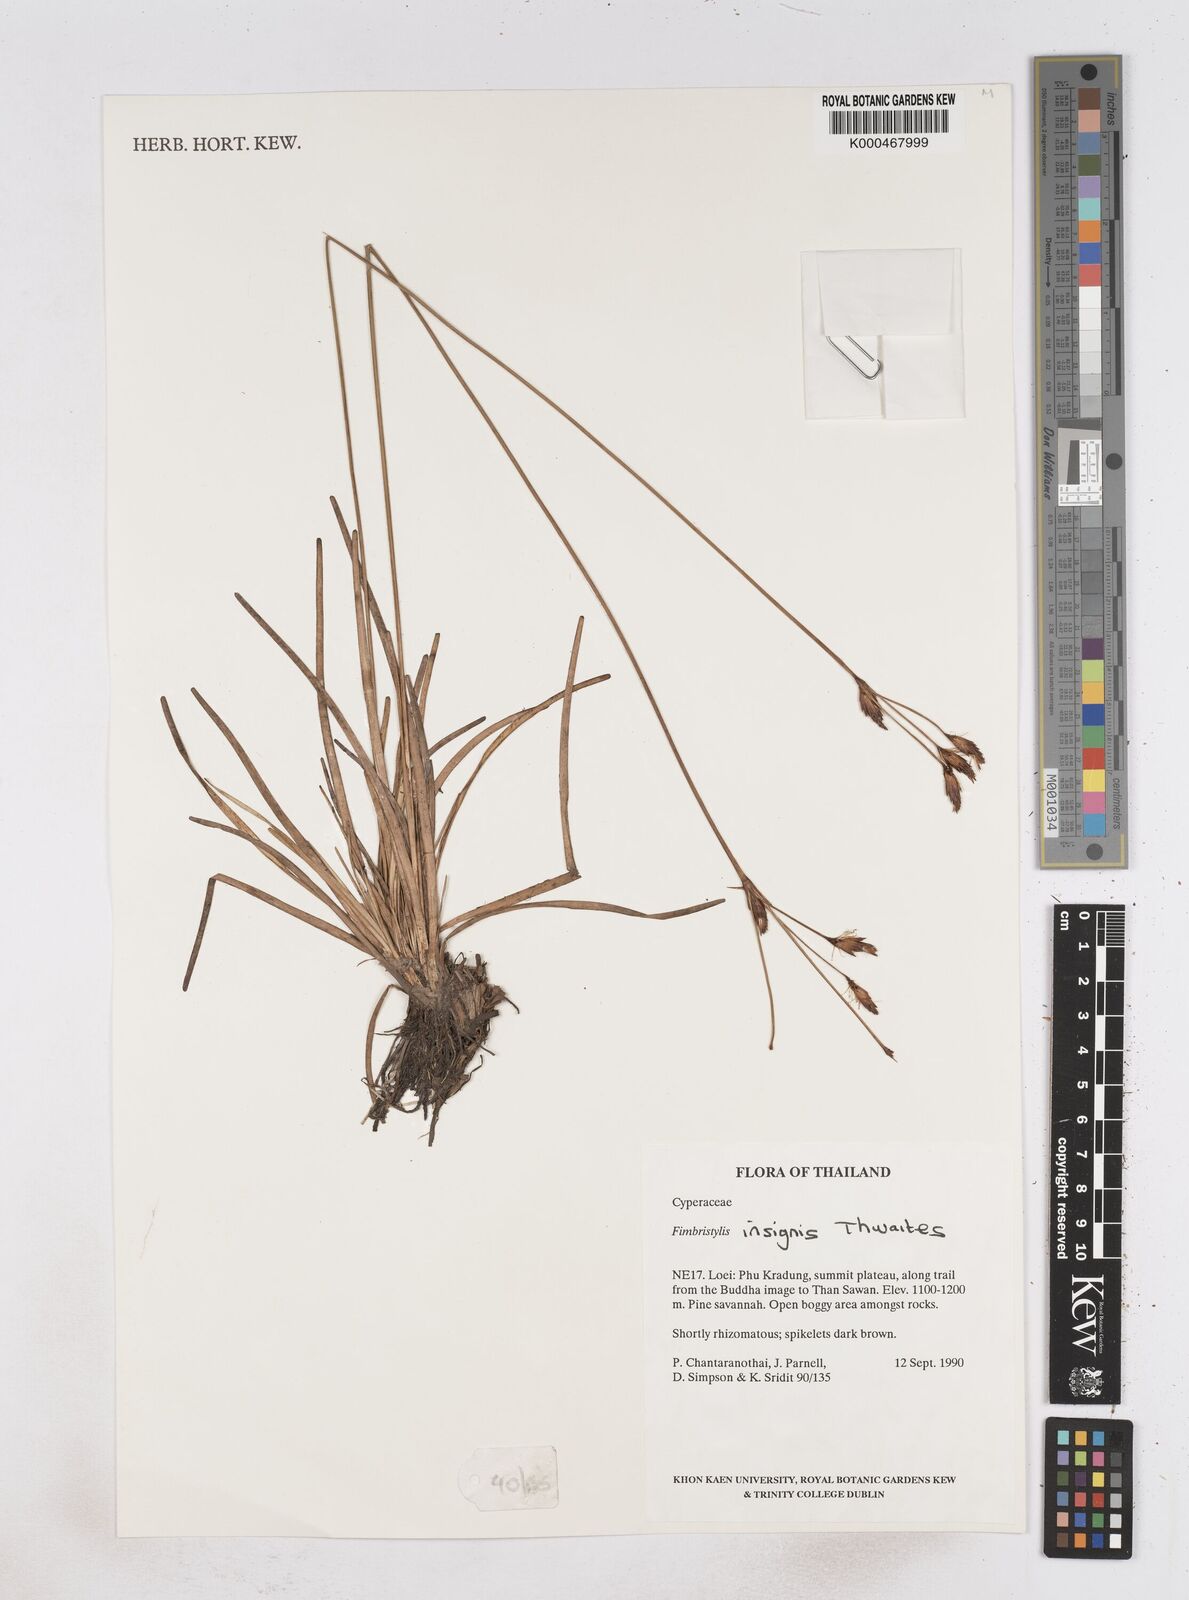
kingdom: Plantae
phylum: Tracheophyta
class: Liliopsida
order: Poales
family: Cyperaceae
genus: Fimbristylis
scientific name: Fimbristylis insignis
